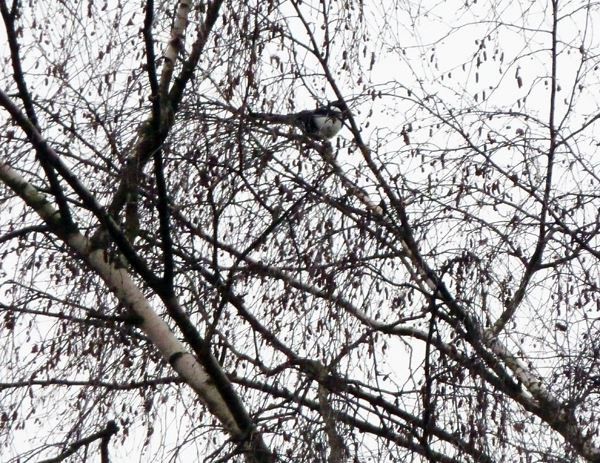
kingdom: Animalia
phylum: Chordata
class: Aves
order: Passeriformes
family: Corvidae
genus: Pica
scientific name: Pica pica
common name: Eurasian magpie
